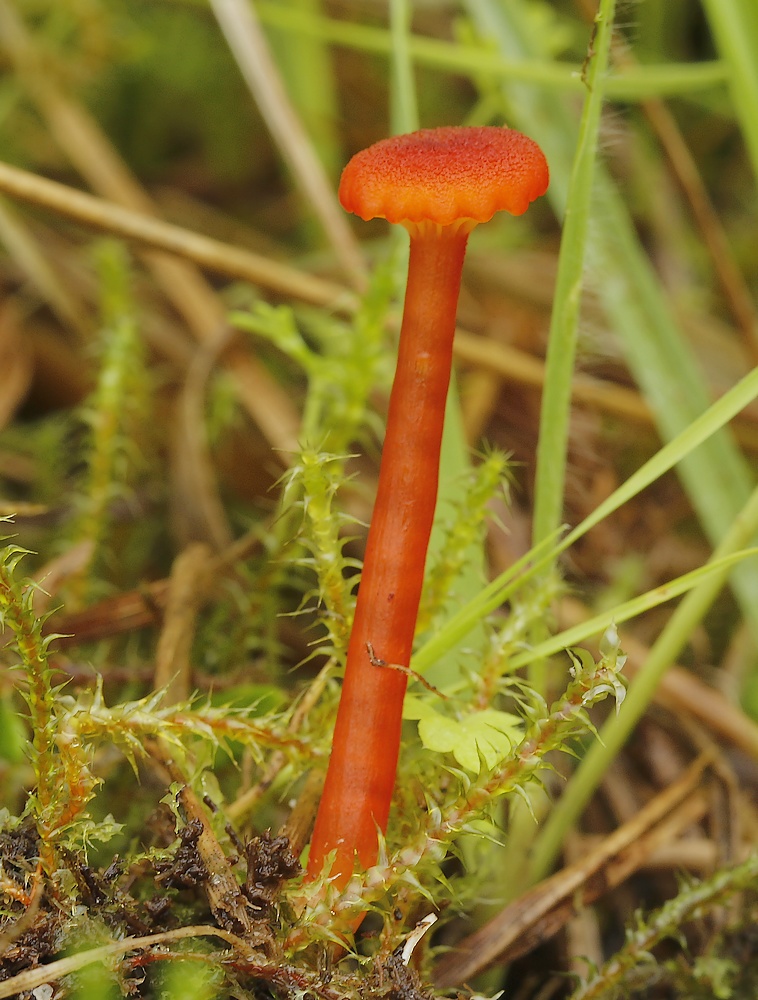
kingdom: Fungi
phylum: Basidiomycota
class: Agaricomycetes
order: Agaricales
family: Hygrophoraceae
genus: Hygrocybe
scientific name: Hygrocybe coccineocrenata
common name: tørvemos-vokshat
